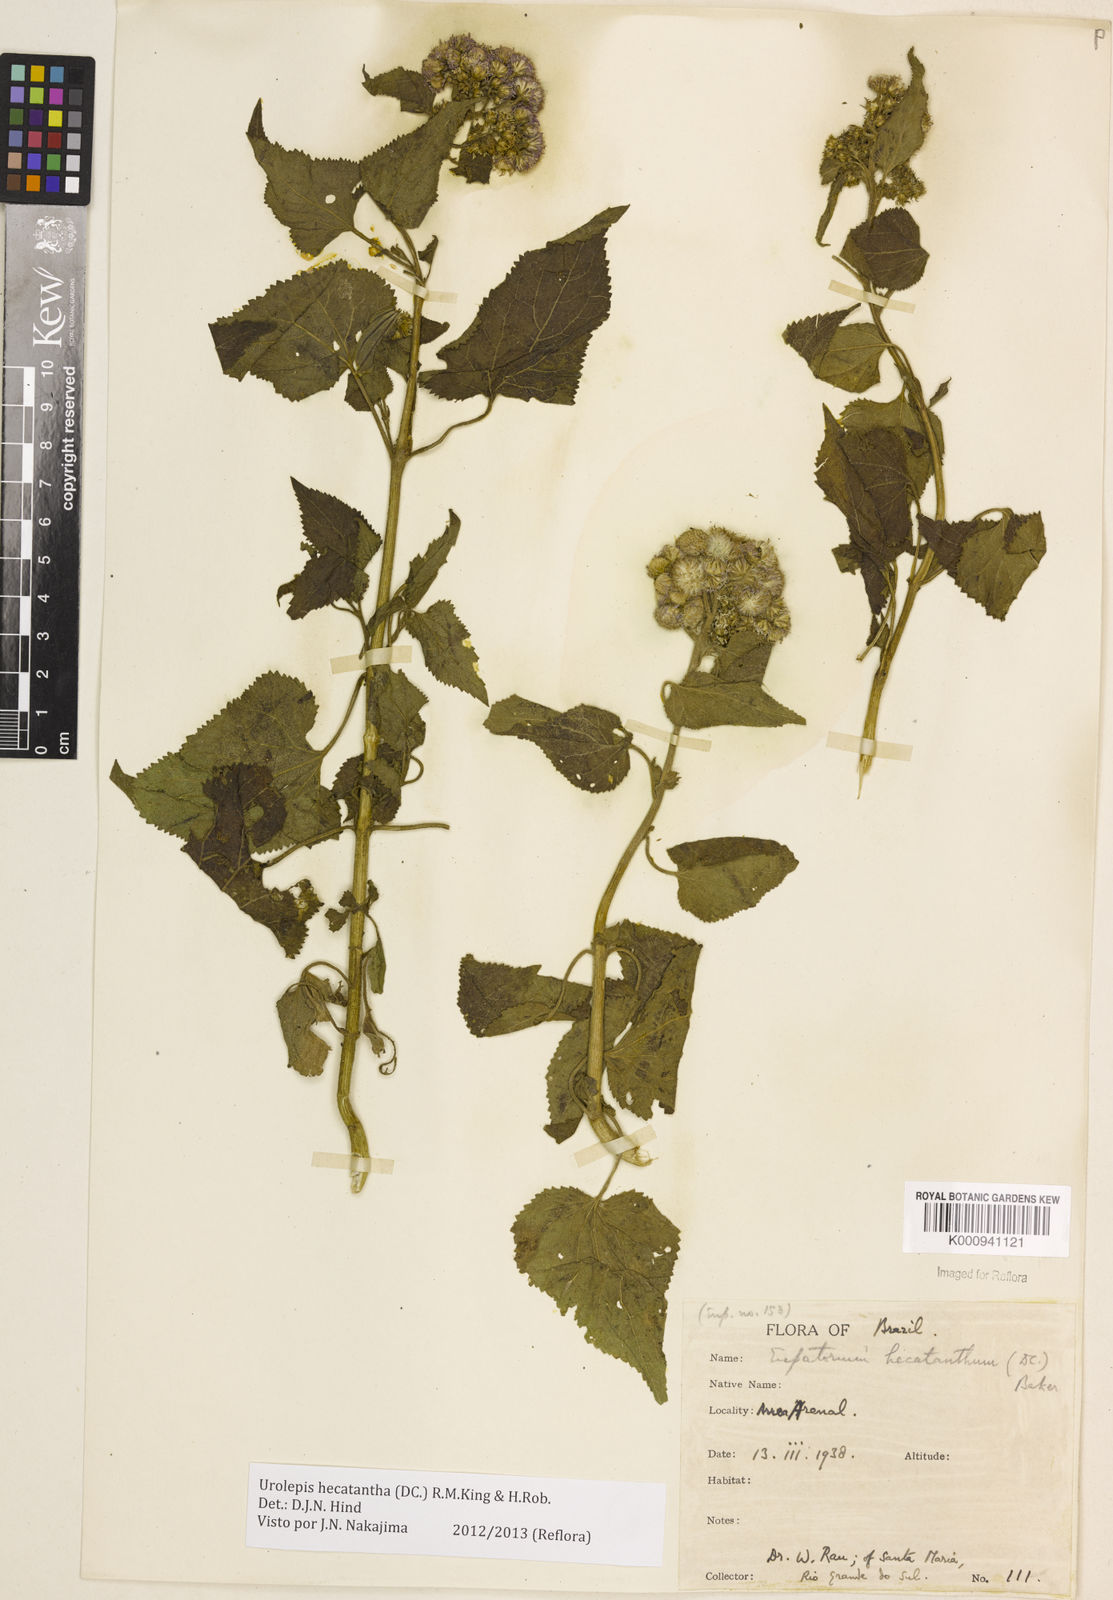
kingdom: Plantae
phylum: Tracheophyta
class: Magnoliopsida
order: Asterales
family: Asteraceae
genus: Urolepis
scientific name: Urolepis hecatantha
